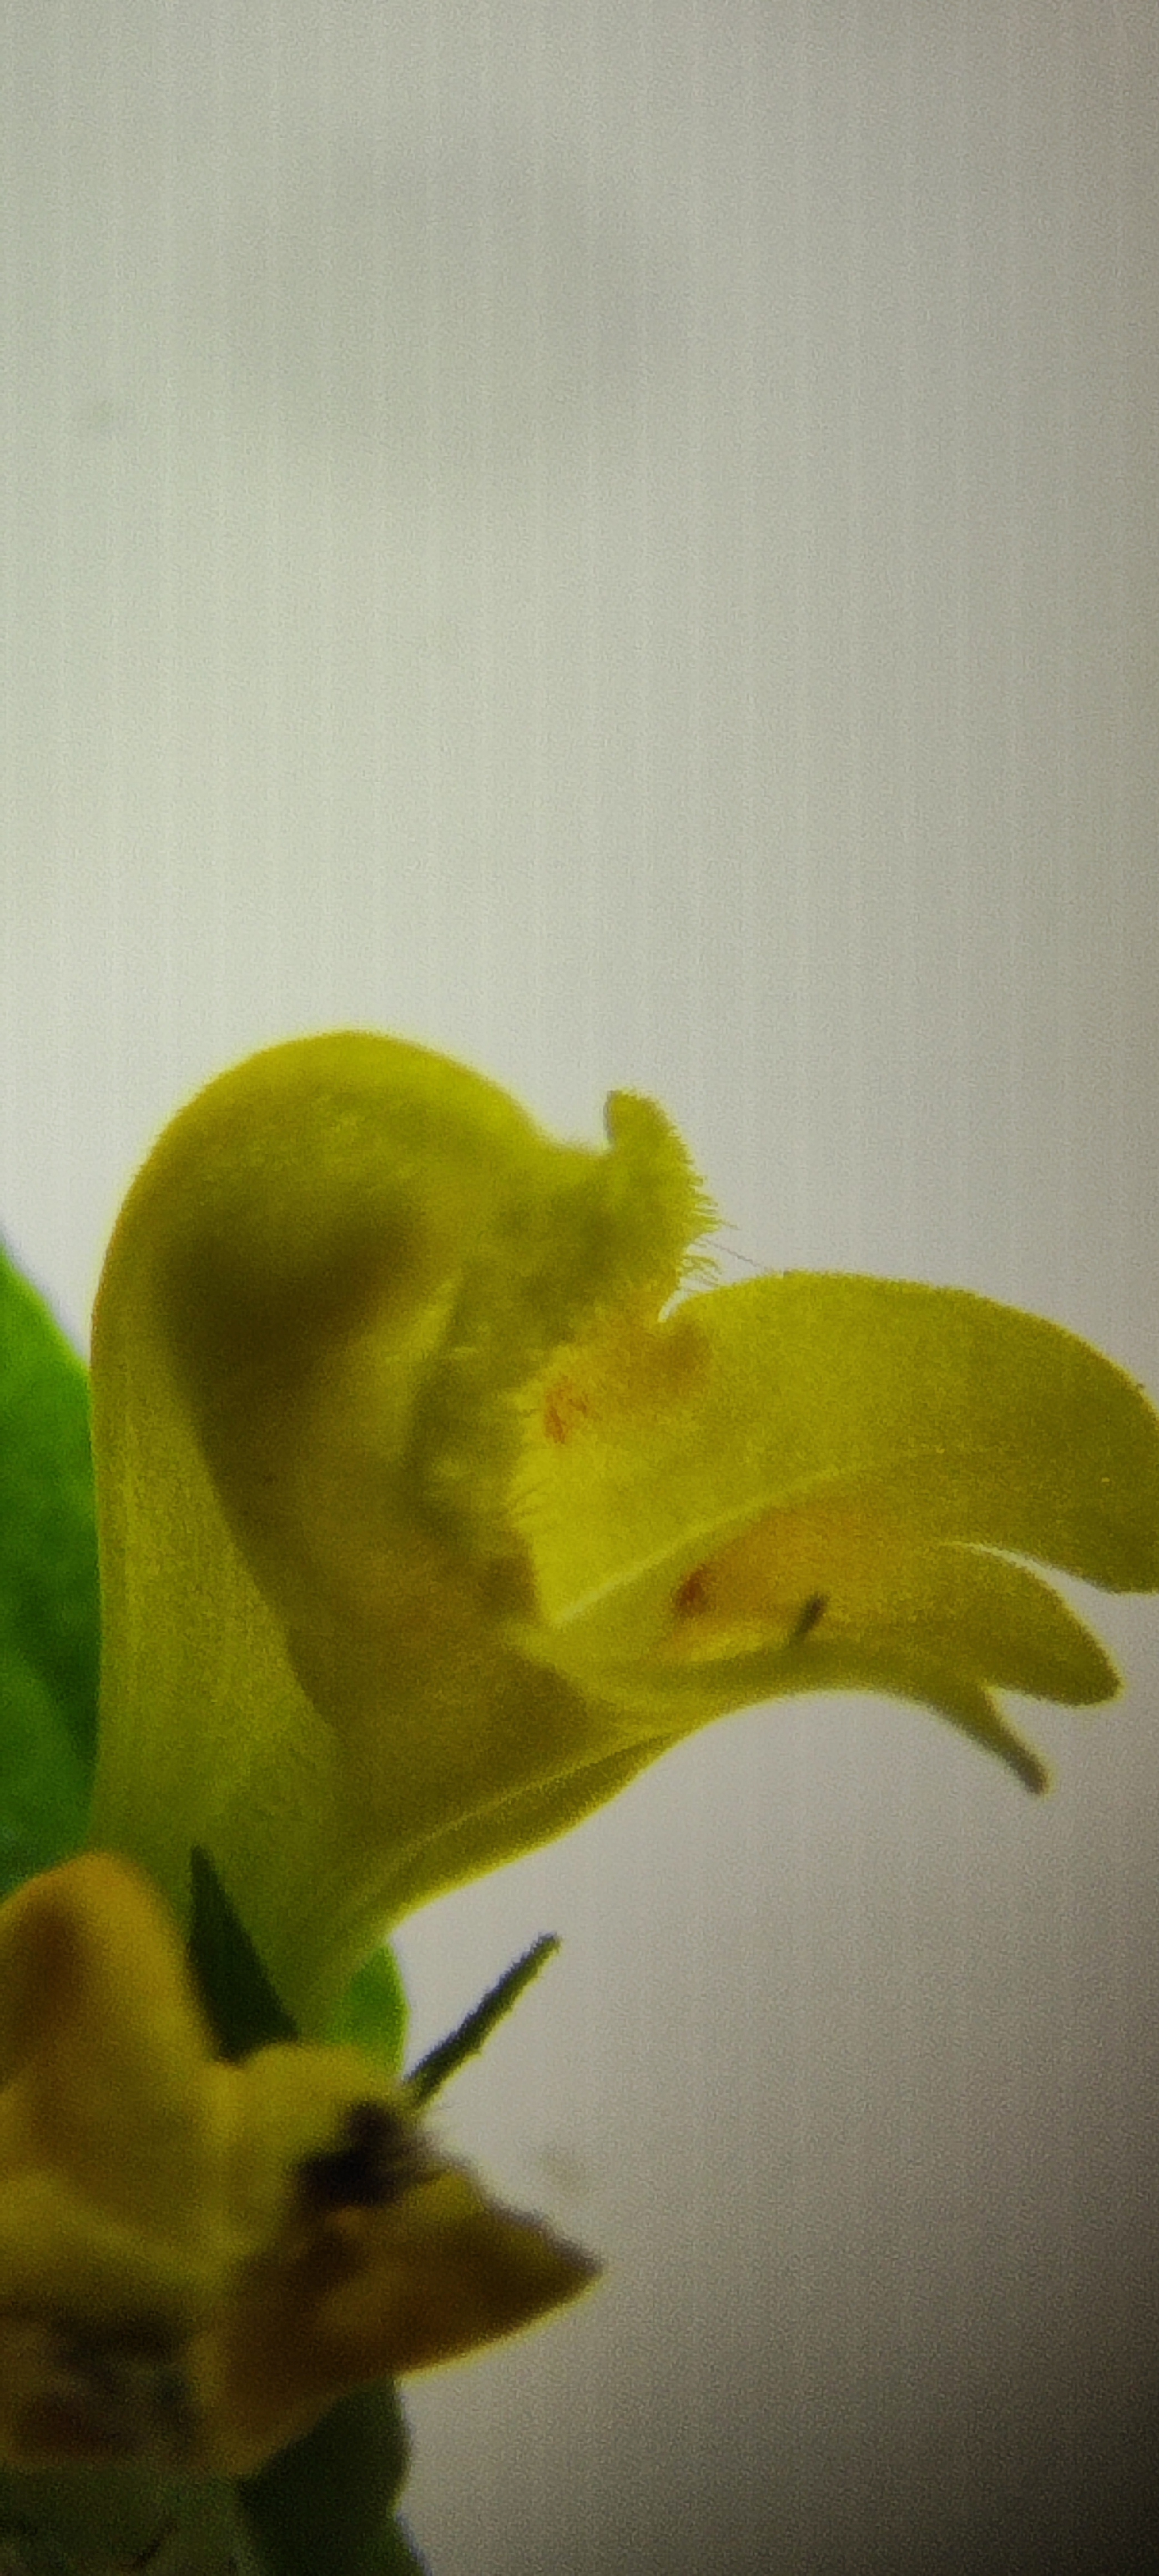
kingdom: Plantae
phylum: Tracheophyta
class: Magnoliopsida
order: Lamiales
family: Orobanchaceae
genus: Melampyrum
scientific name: Melampyrum sylvaticum
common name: Skov-kohvede
